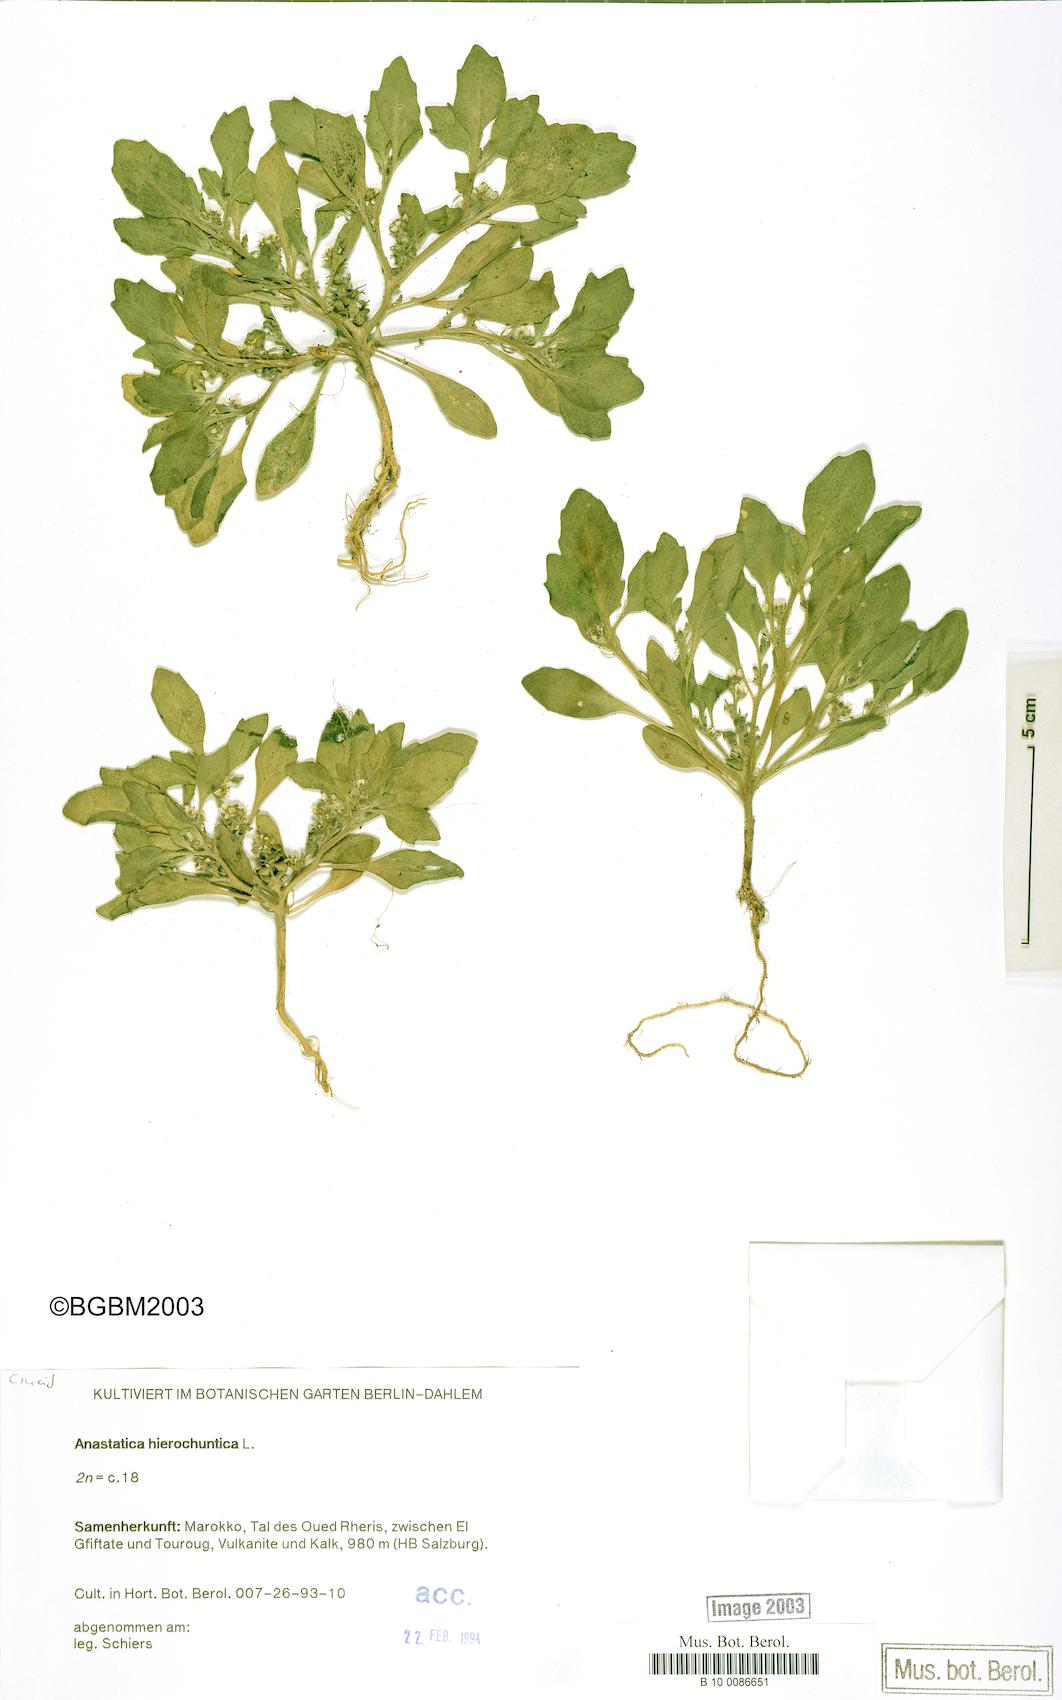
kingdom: Plantae
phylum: Tracheophyta
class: Magnoliopsida
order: Brassicales
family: Brassicaceae
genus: Anastatica
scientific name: Anastatica hierochuntica
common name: Rose-of-jericho
